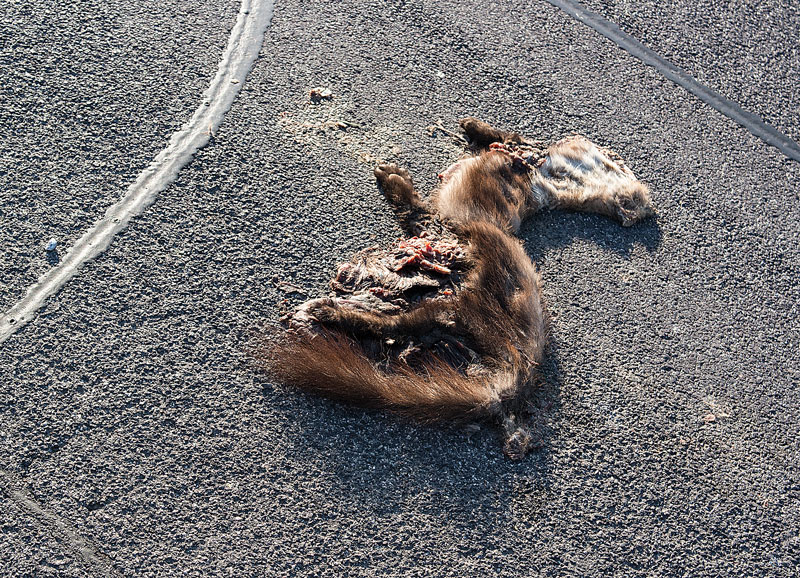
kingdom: Animalia
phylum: Chordata
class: Mammalia
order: Carnivora
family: Mustelidae
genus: Martes
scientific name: Martes martes
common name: European pine marten
